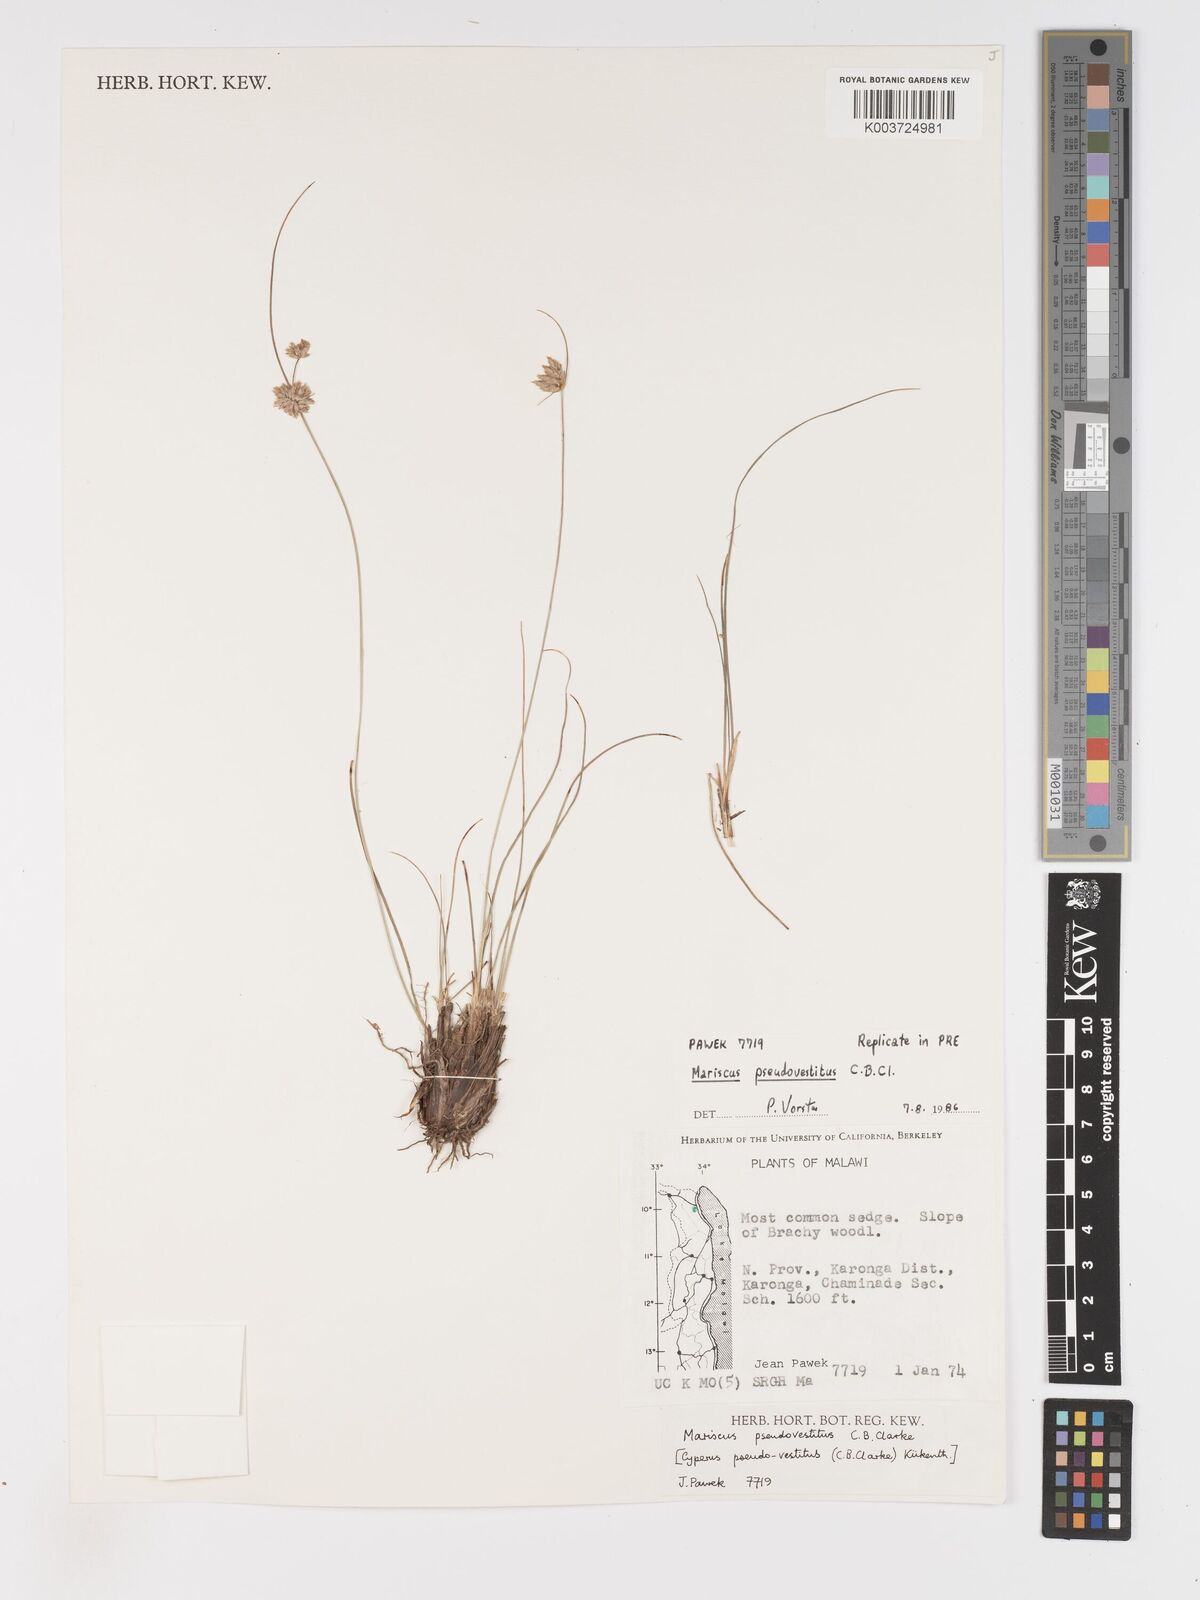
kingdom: Plantae
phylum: Tracheophyta
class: Liliopsida
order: Poales
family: Cyperaceae
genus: Cyperus
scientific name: Cyperus pseudovestitus
